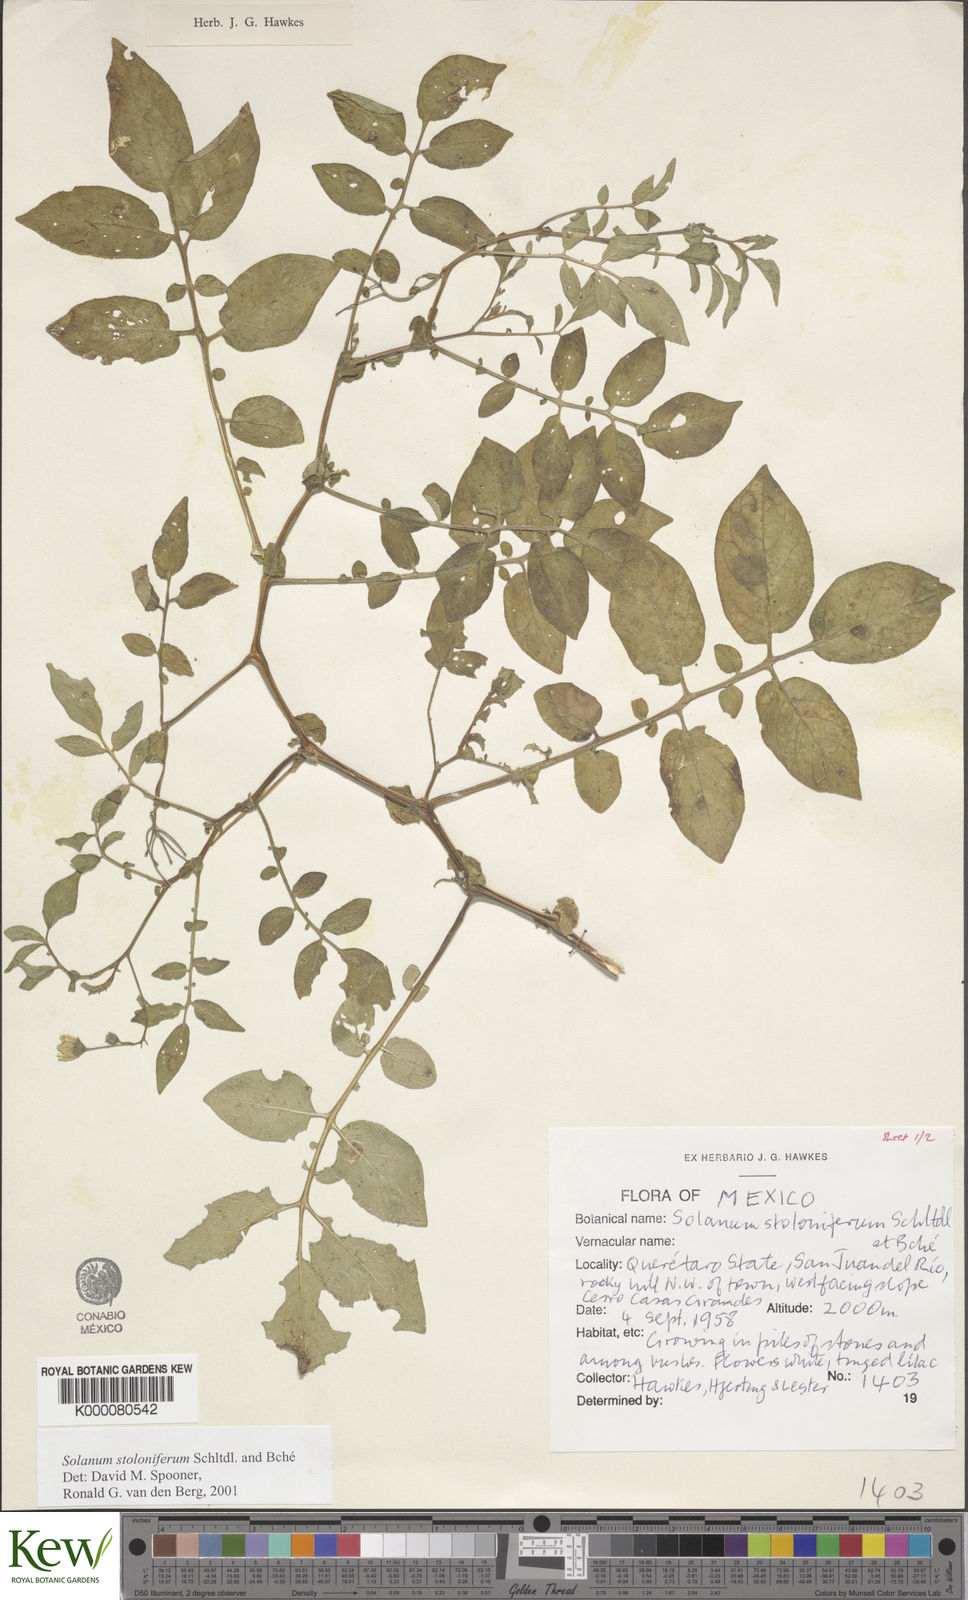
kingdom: Plantae
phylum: Tracheophyta
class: Magnoliopsida
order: Solanales
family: Solanaceae
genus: Solanum
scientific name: Solanum stoloniferum
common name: Fendler's nighshade
